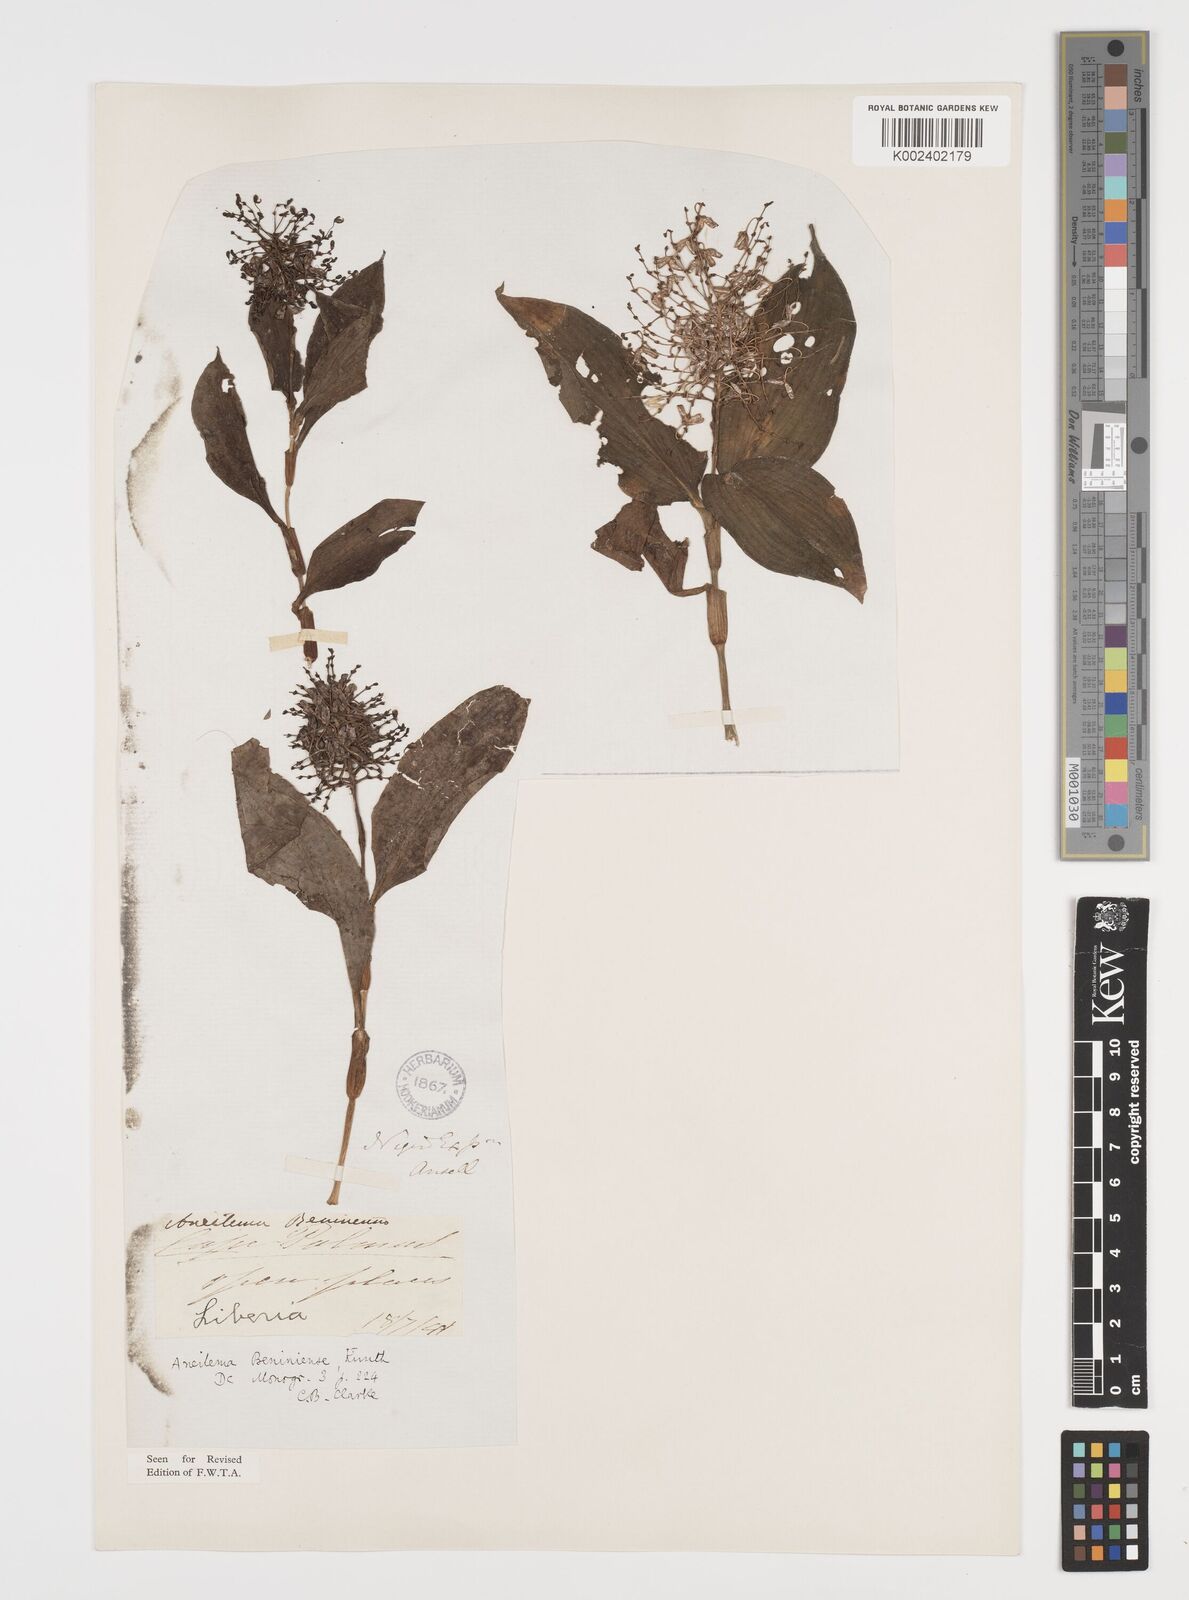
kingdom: Plantae
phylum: Tracheophyta
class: Liliopsida
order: Commelinales
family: Commelinaceae
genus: Aneilema
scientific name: Aneilema beniniense
